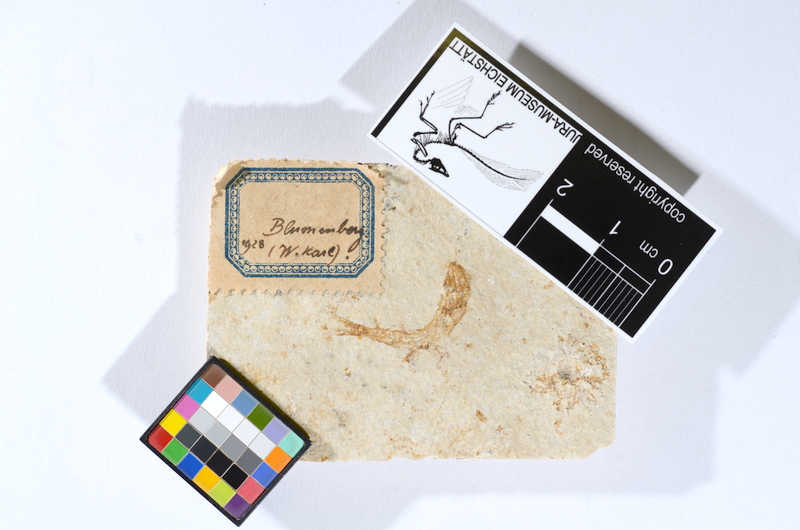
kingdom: Animalia
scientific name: Animalia
